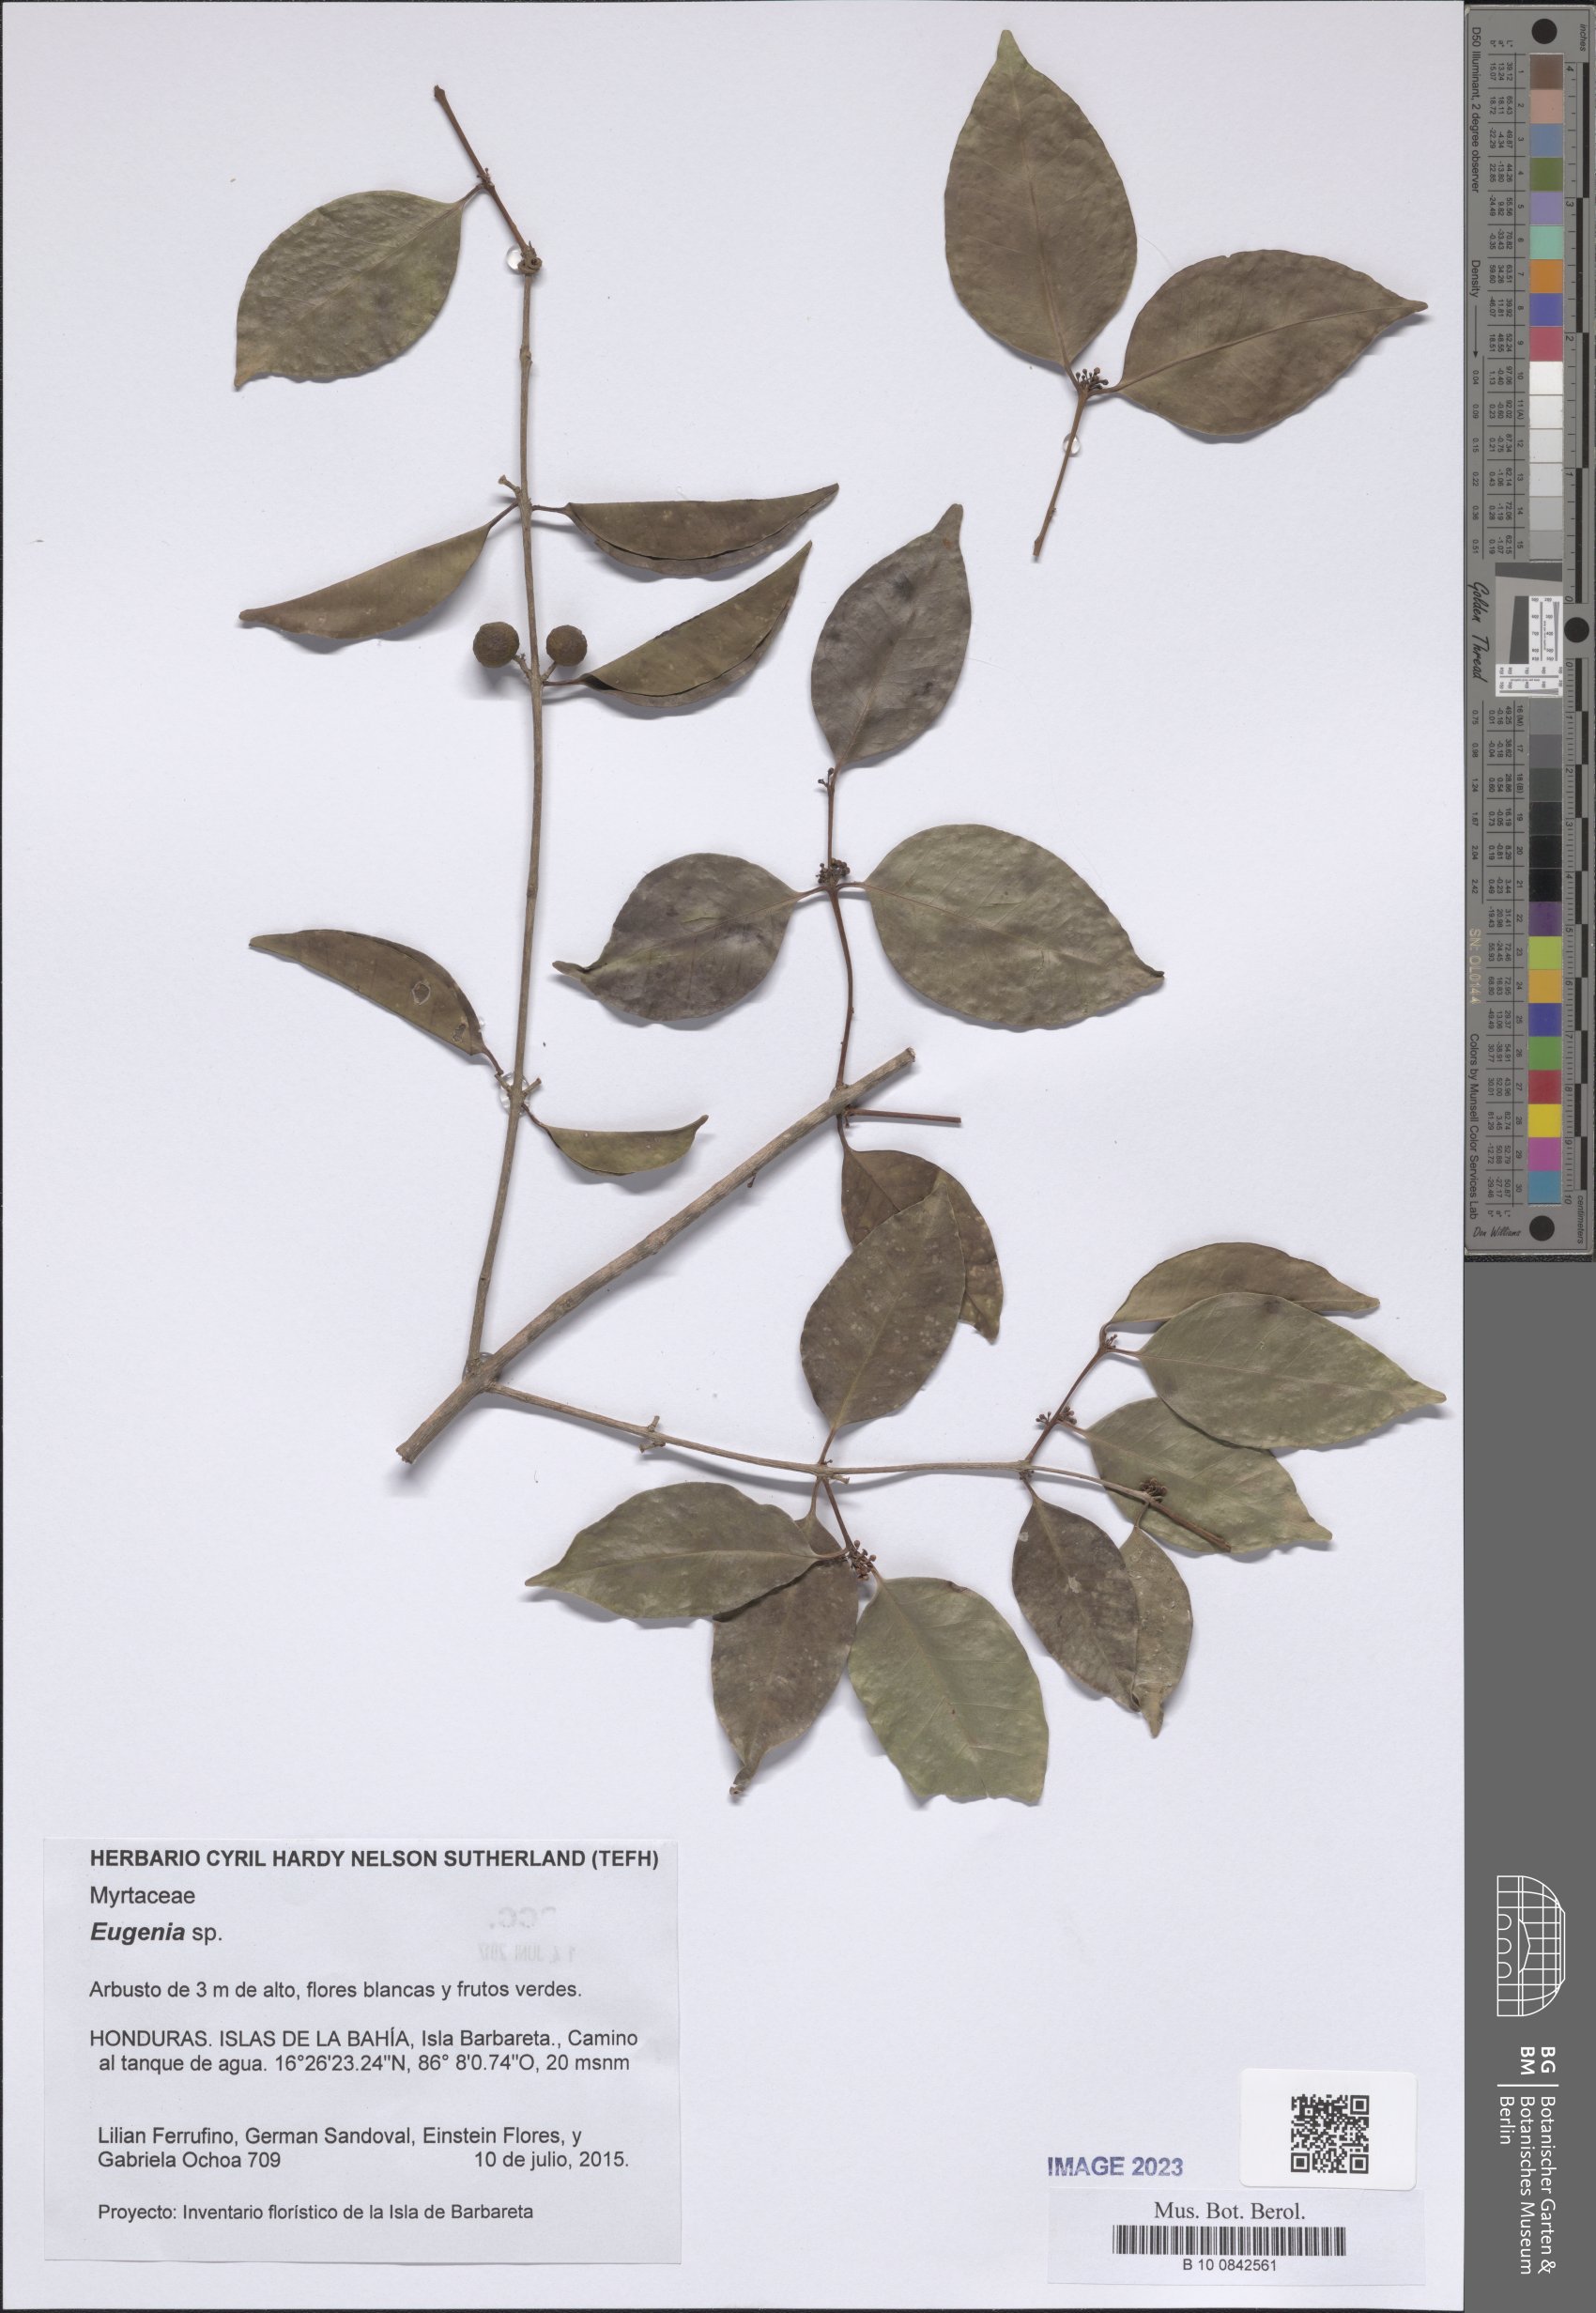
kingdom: Plantae
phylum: Tracheophyta
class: Magnoliopsida
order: Myrtales
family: Myrtaceae
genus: Eugenia
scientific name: Eugenia
